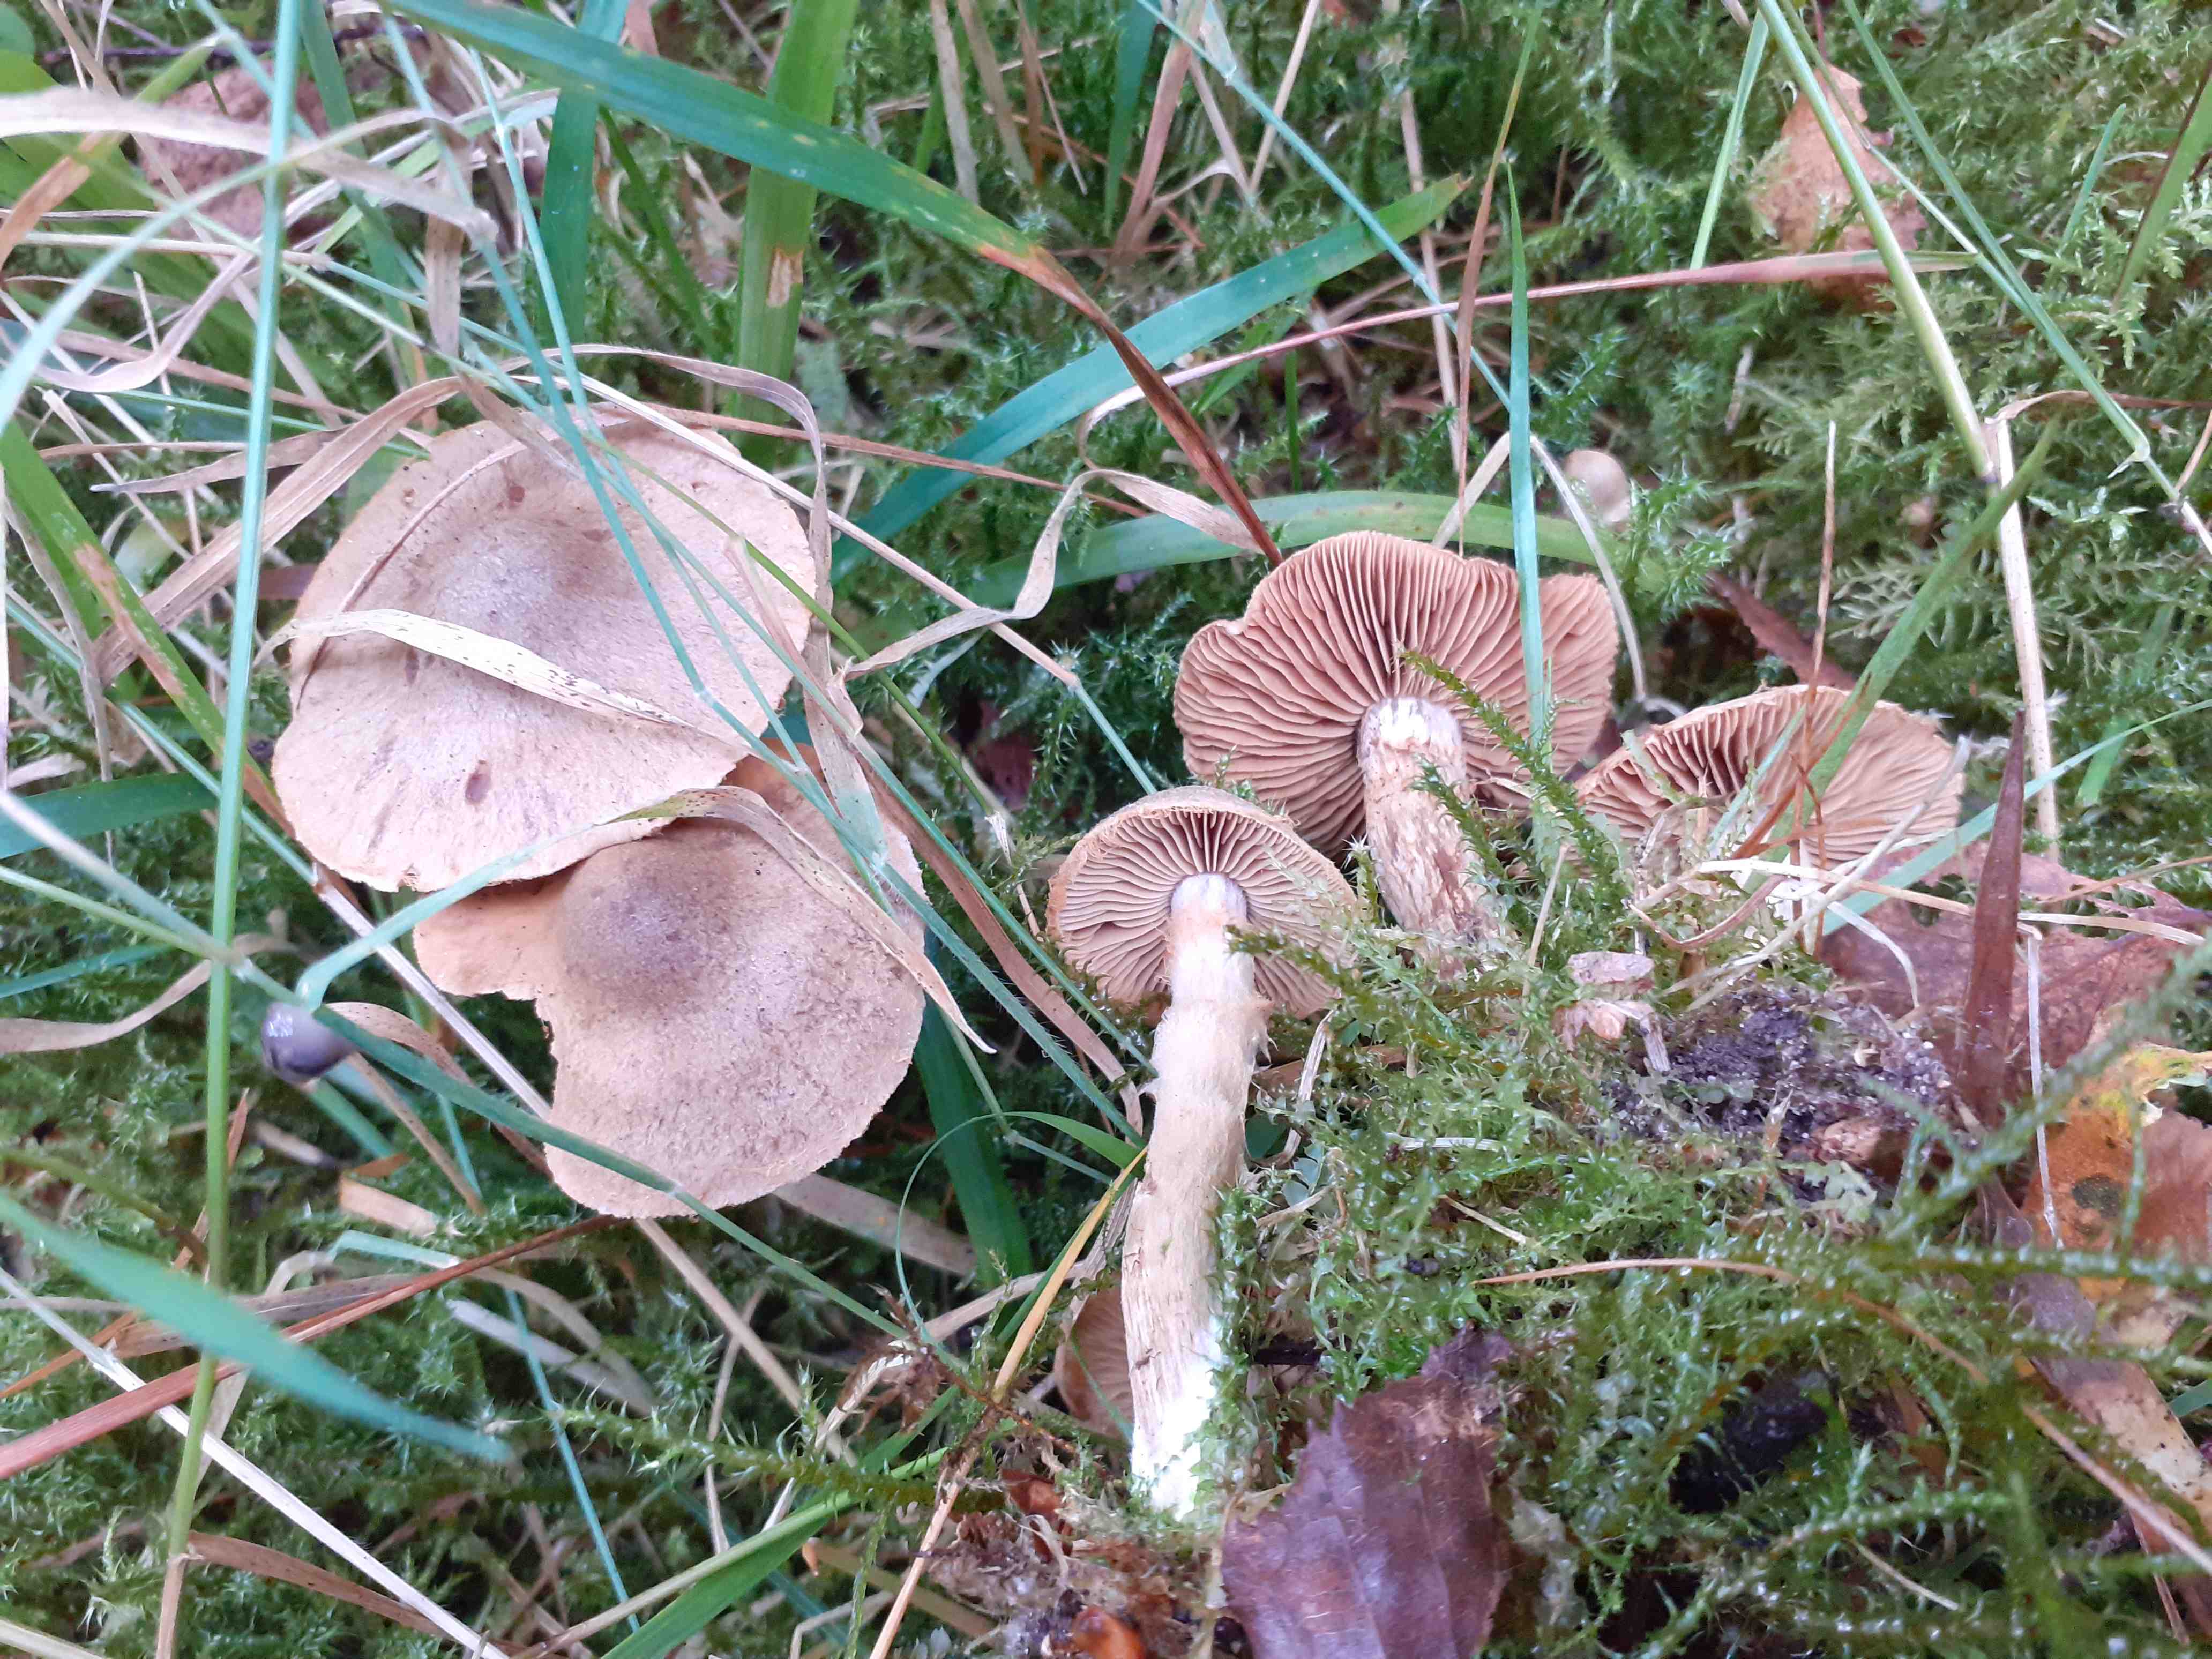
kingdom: Fungi
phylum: Basidiomycota
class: Agaricomycetes
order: Agaricales
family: Cortinariaceae
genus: Cortinarius
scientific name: Cortinarius raphanoides
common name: ræddike-slørhat
